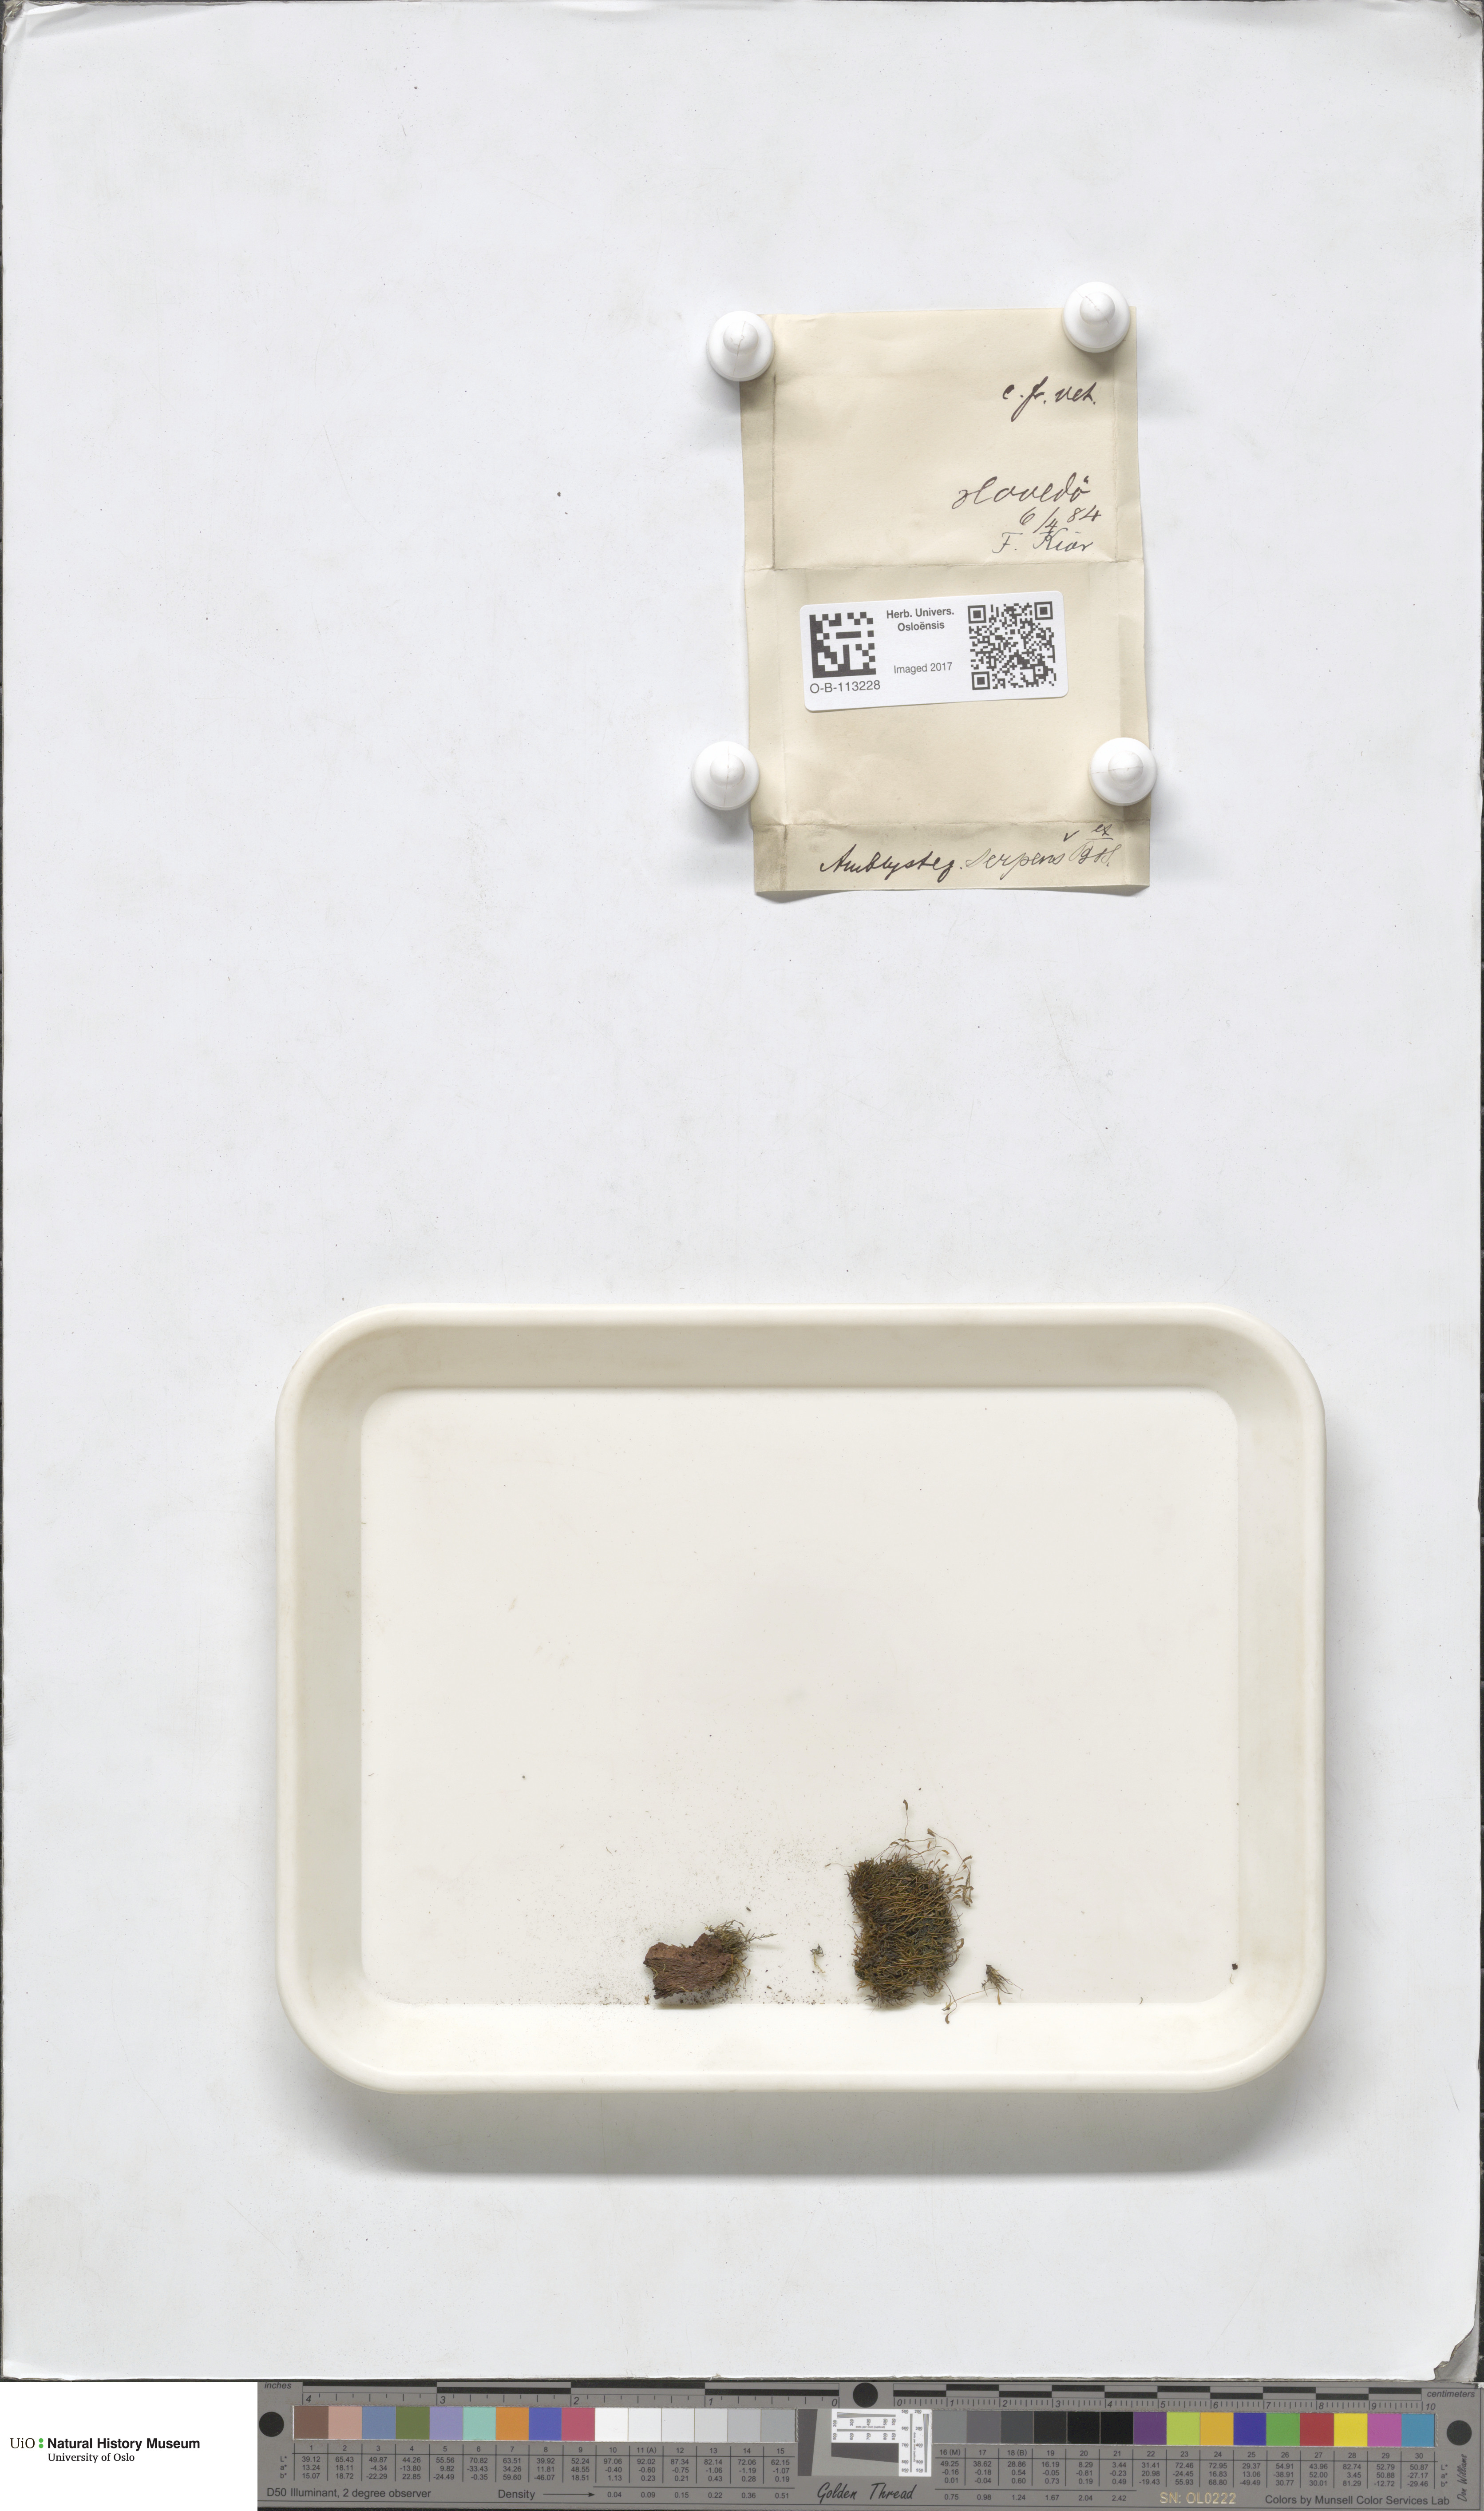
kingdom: Plantae
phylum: Bryophyta
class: Bryopsida
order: Hypnales
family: Amblystegiaceae
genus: Amblystegium
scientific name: Amblystegium serpens
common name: Jurkatzka's feather moss
